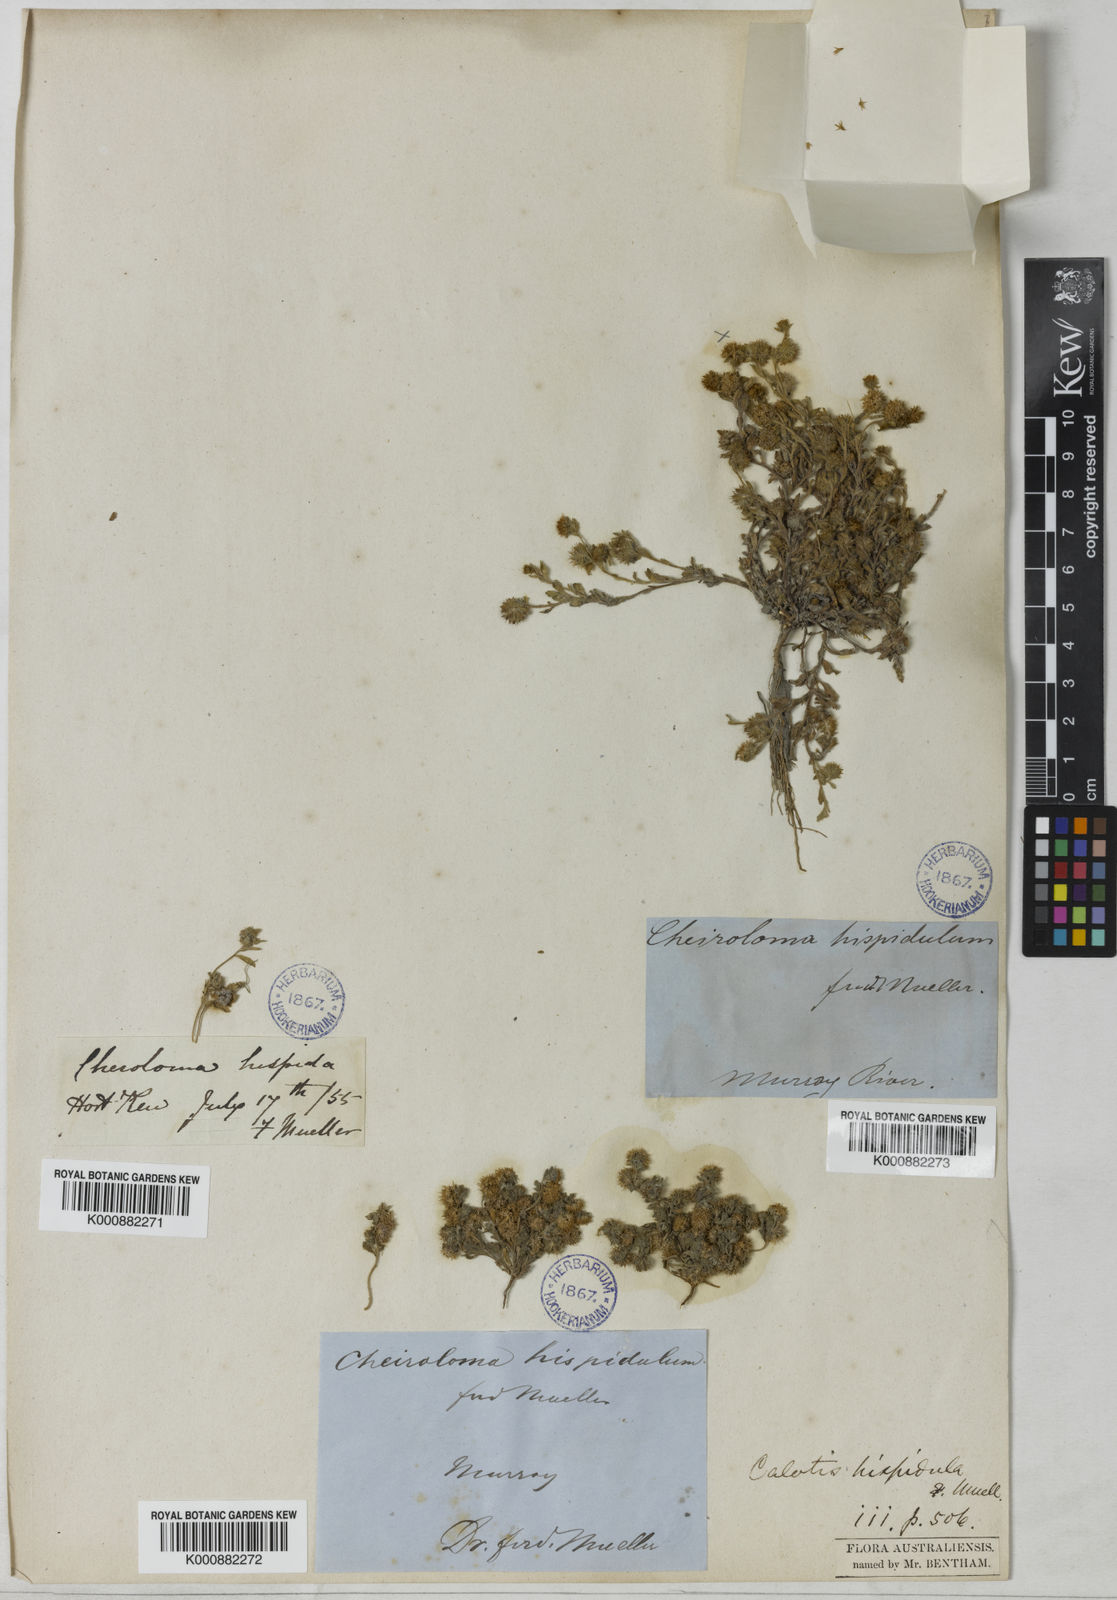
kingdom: Plantae
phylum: Tracheophyta
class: Magnoliopsida
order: Asterales
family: Asteraceae
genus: Calotis
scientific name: Calotis hispidula
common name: Bogan-flea
